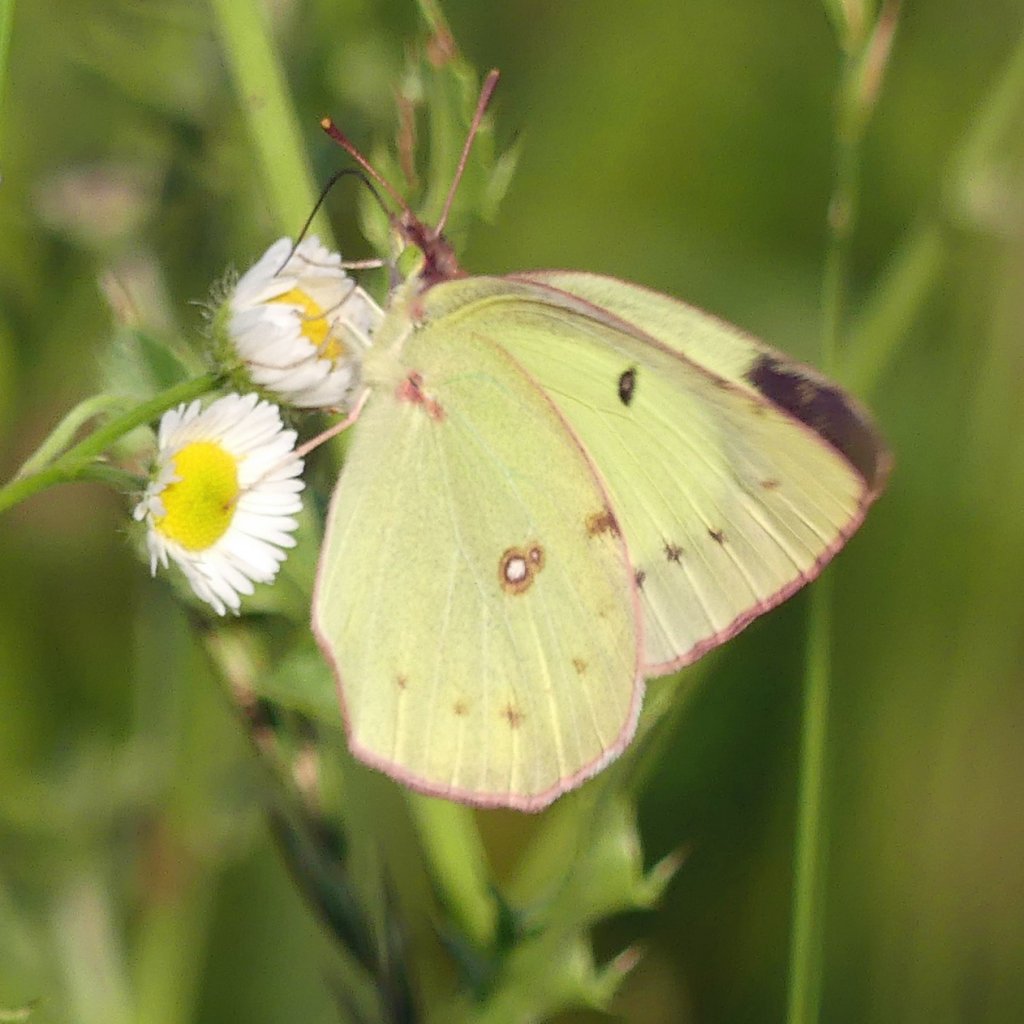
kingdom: Animalia
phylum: Arthropoda
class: Insecta
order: Lepidoptera
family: Pieridae
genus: Colias
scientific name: Colias philodice
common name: Clouded Sulphur
